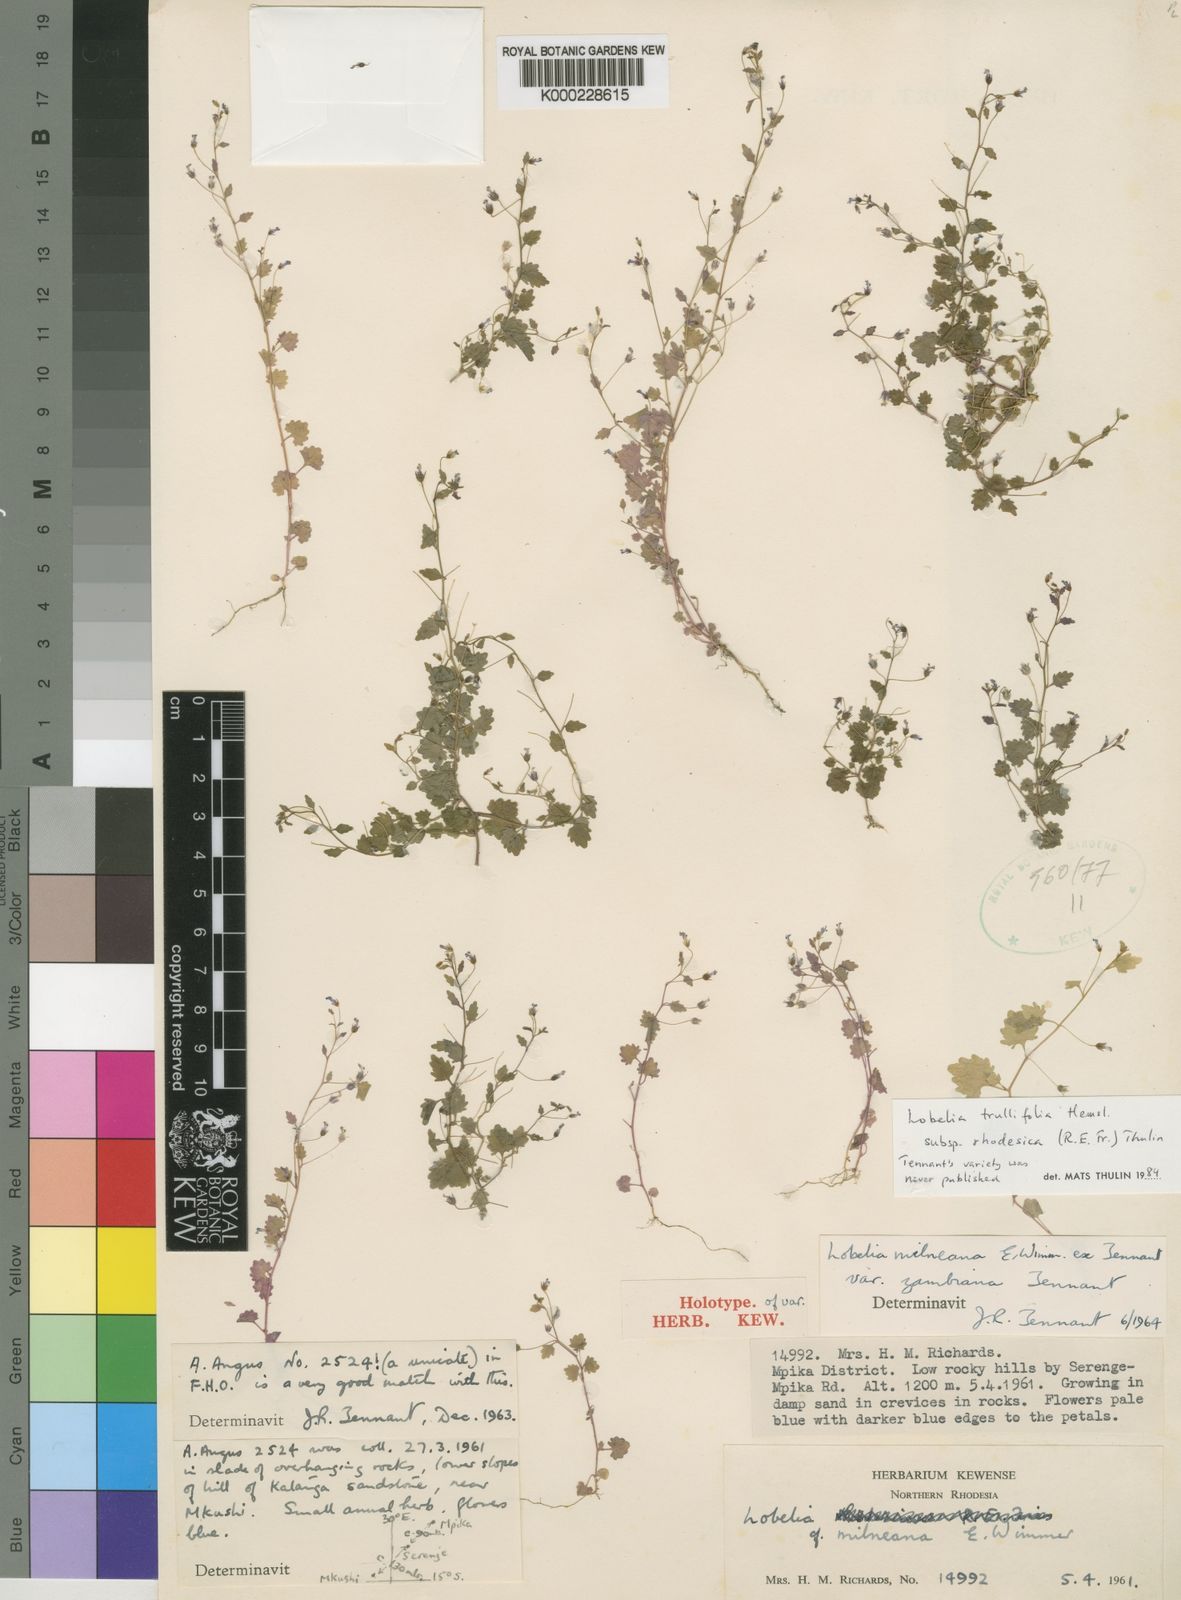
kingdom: Plantae
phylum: Tracheophyta
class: Magnoliopsida
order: Asterales
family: Campanulaceae
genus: Lobelia
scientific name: Lobelia trullifolia
